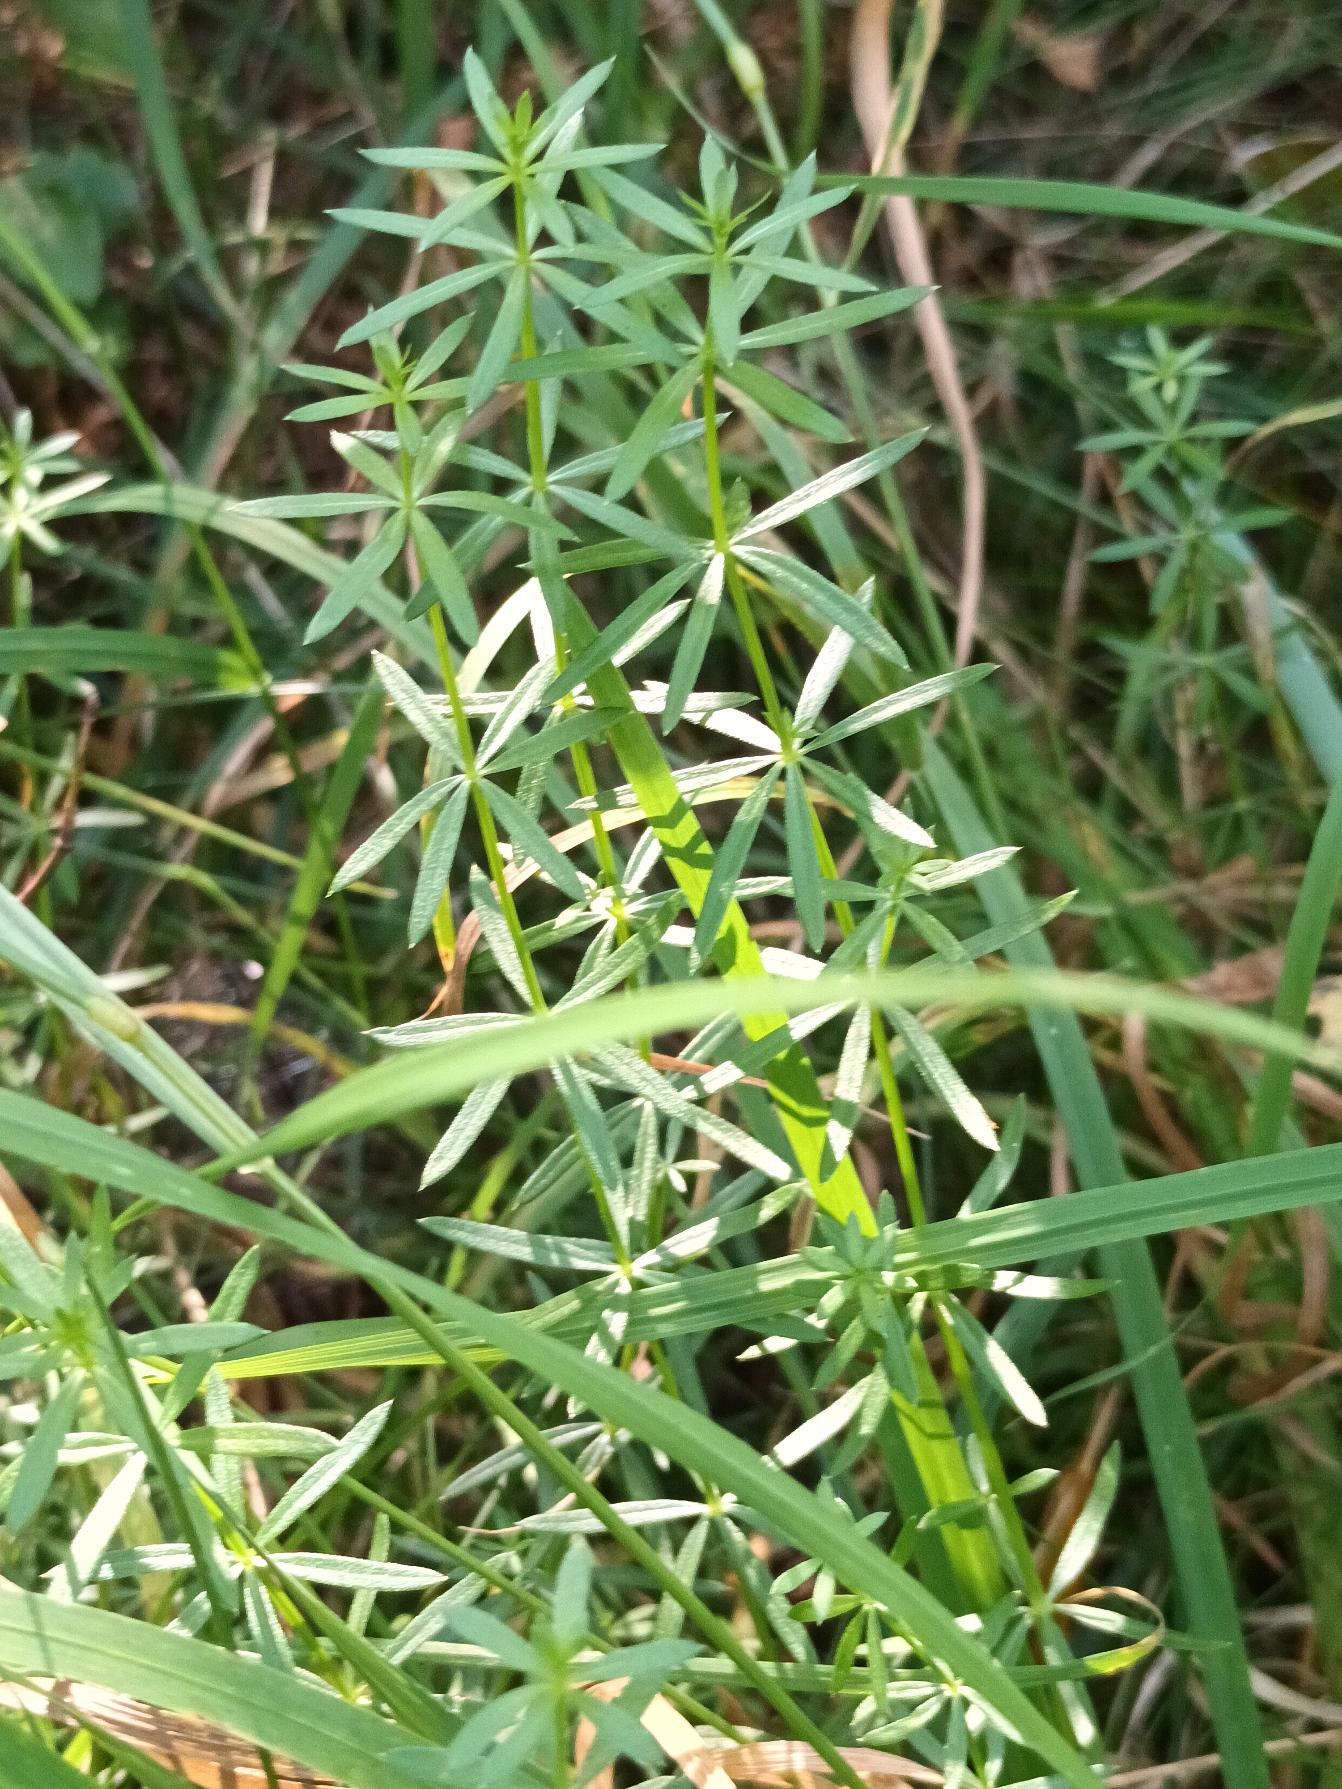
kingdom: Plantae
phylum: Tracheophyta
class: Magnoliopsida
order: Gentianales
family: Rubiaceae
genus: Galium
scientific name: Galium mollugo
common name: Hvid snerre
